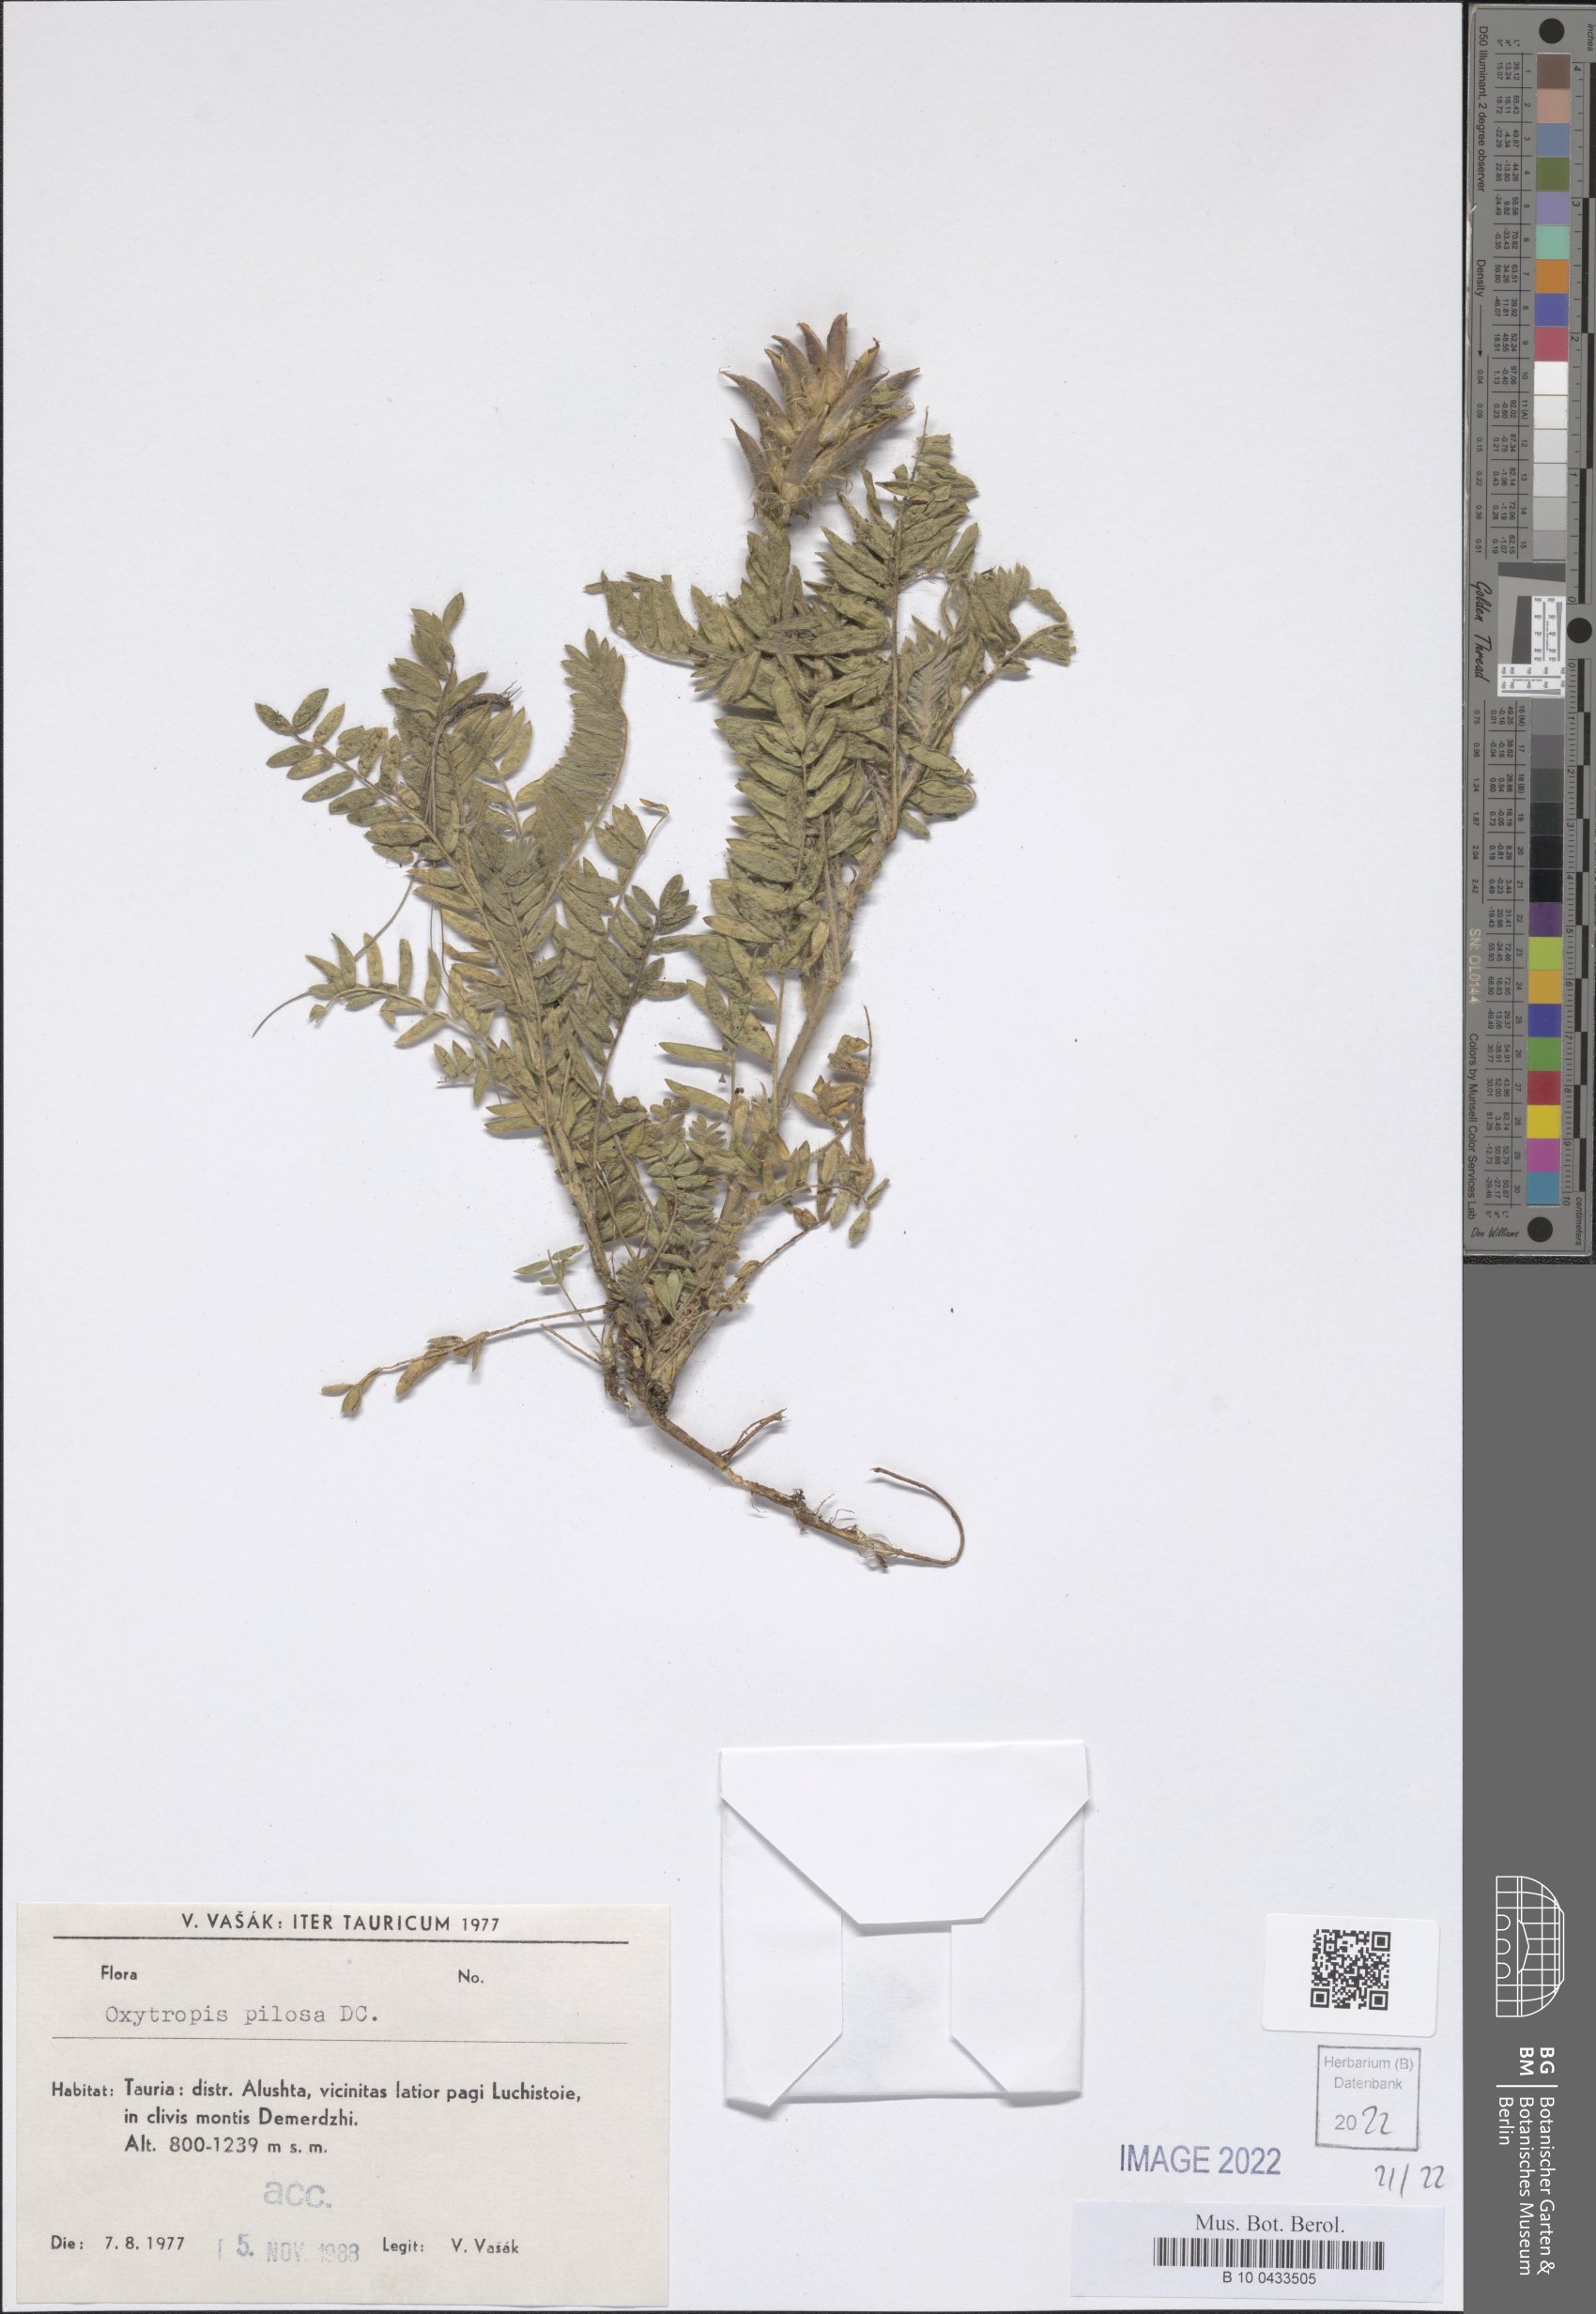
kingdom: Plantae
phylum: Tracheophyta
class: Magnoliopsida
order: Fabales
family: Fabaceae
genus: Oxytropis
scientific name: Oxytropis pilosa
